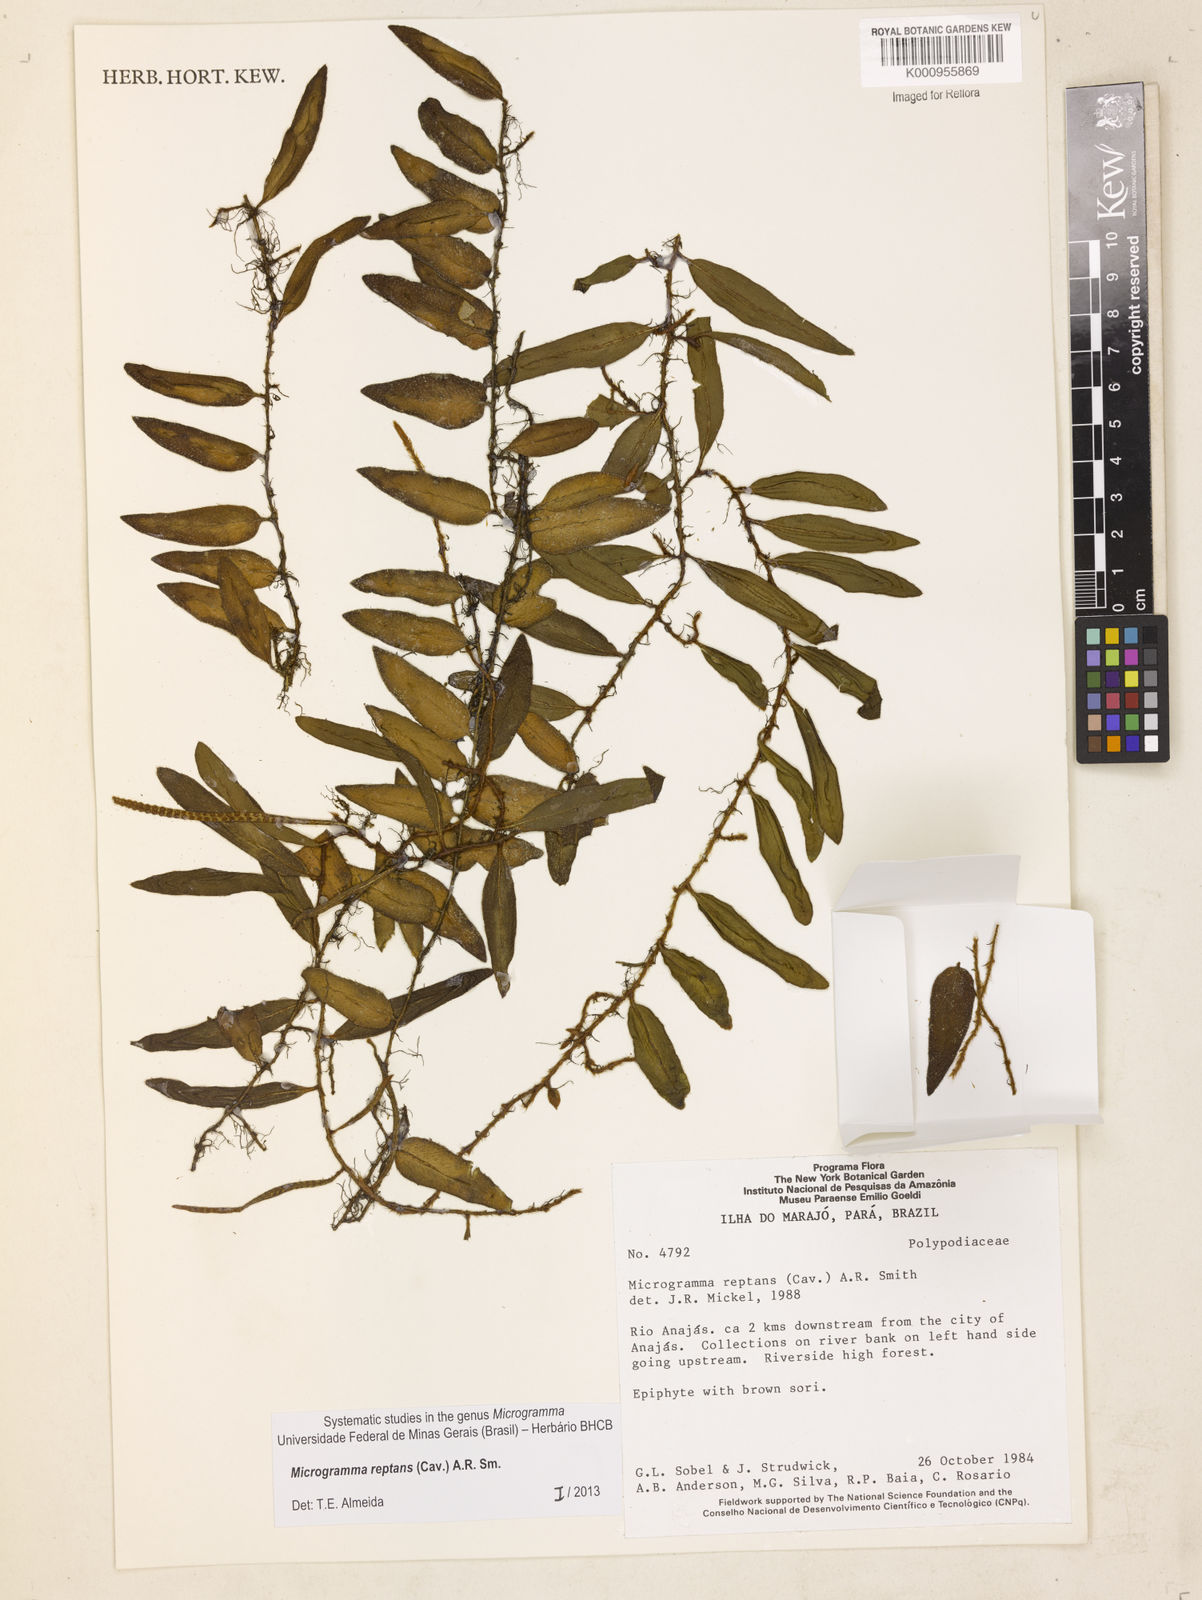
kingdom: Plantae
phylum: Tracheophyta
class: Polypodiopsida
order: Polypodiales
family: Polypodiaceae
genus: Microgramma
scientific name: Microgramma reptans
